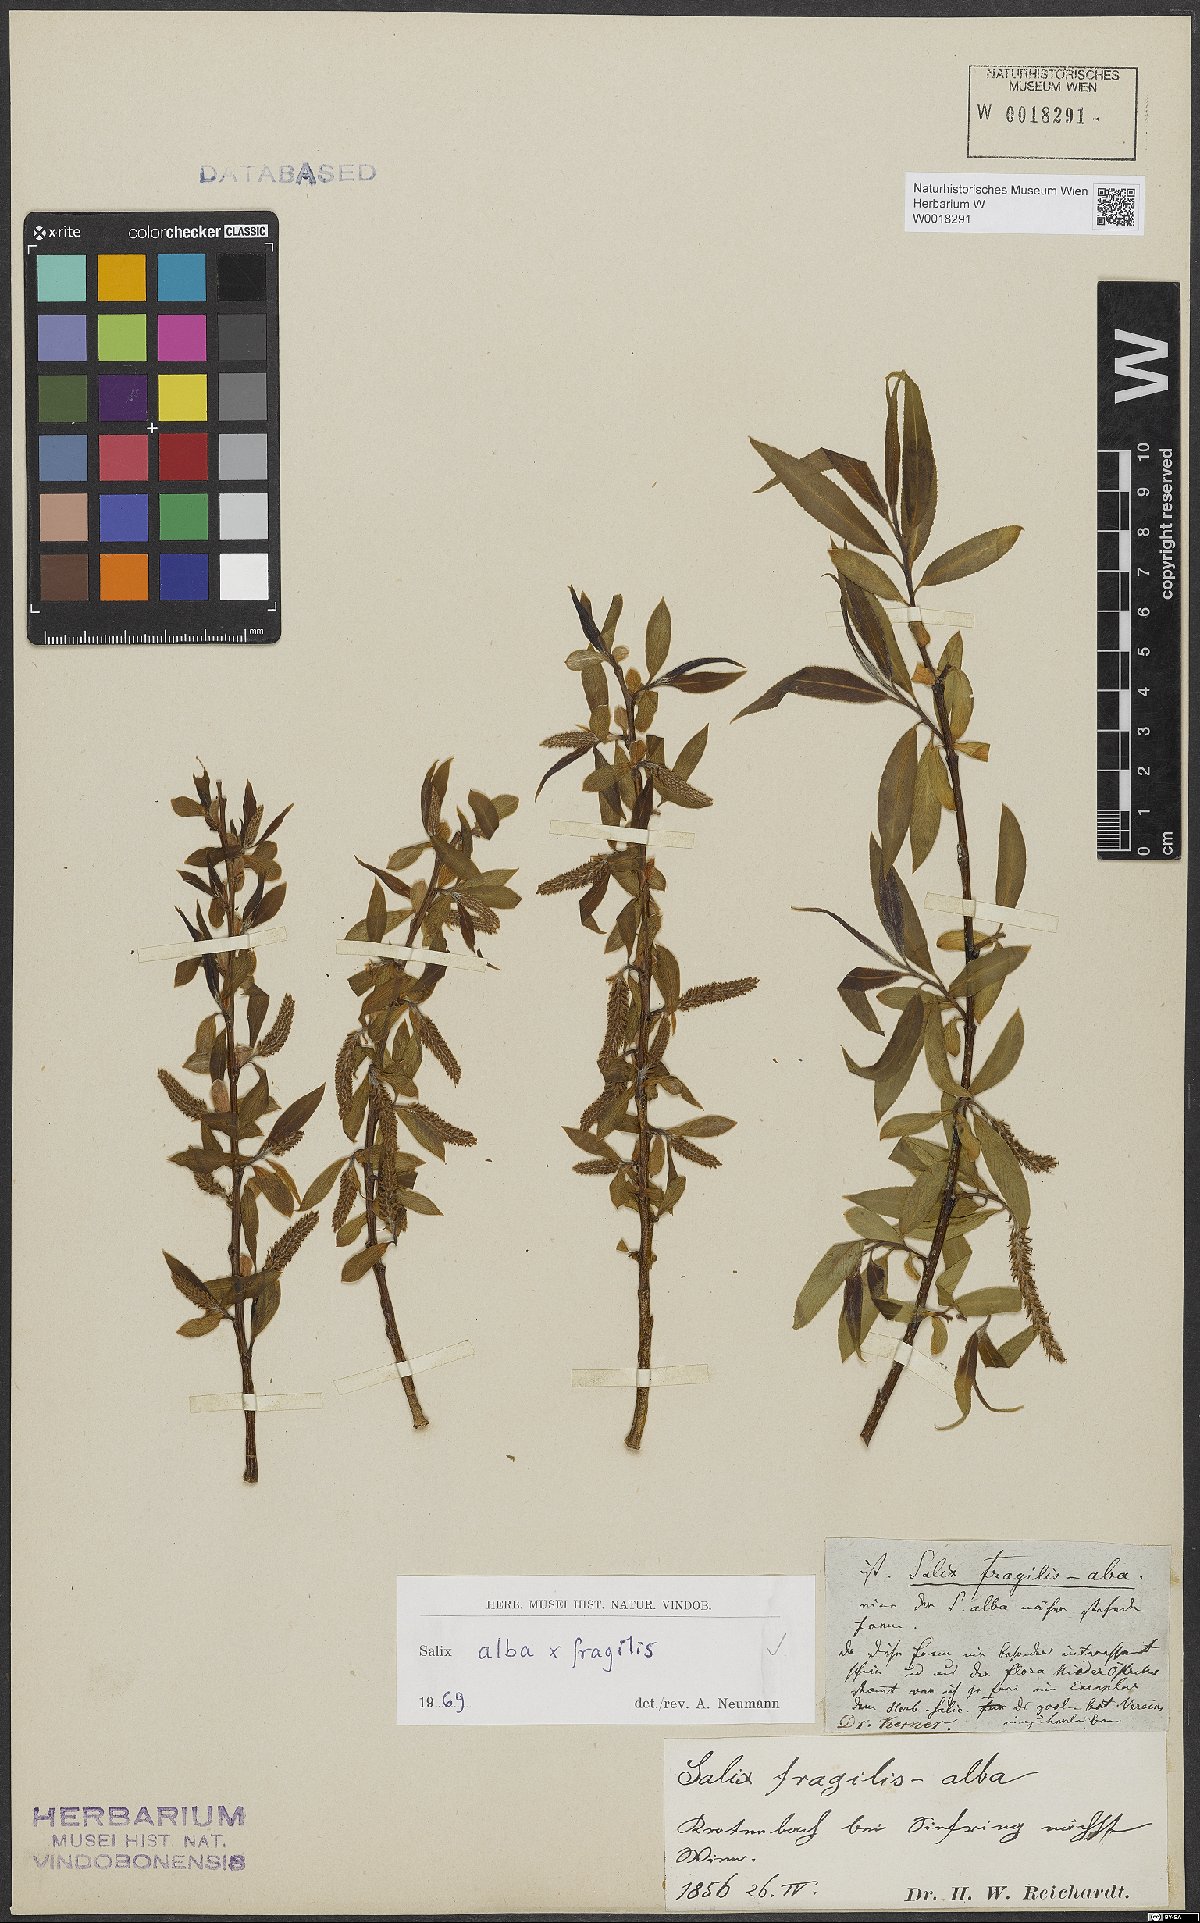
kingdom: Plantae
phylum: Tracheophyta
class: Magnoliopsida
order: Malpighiales
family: Salicaceae
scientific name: Salicaceae
